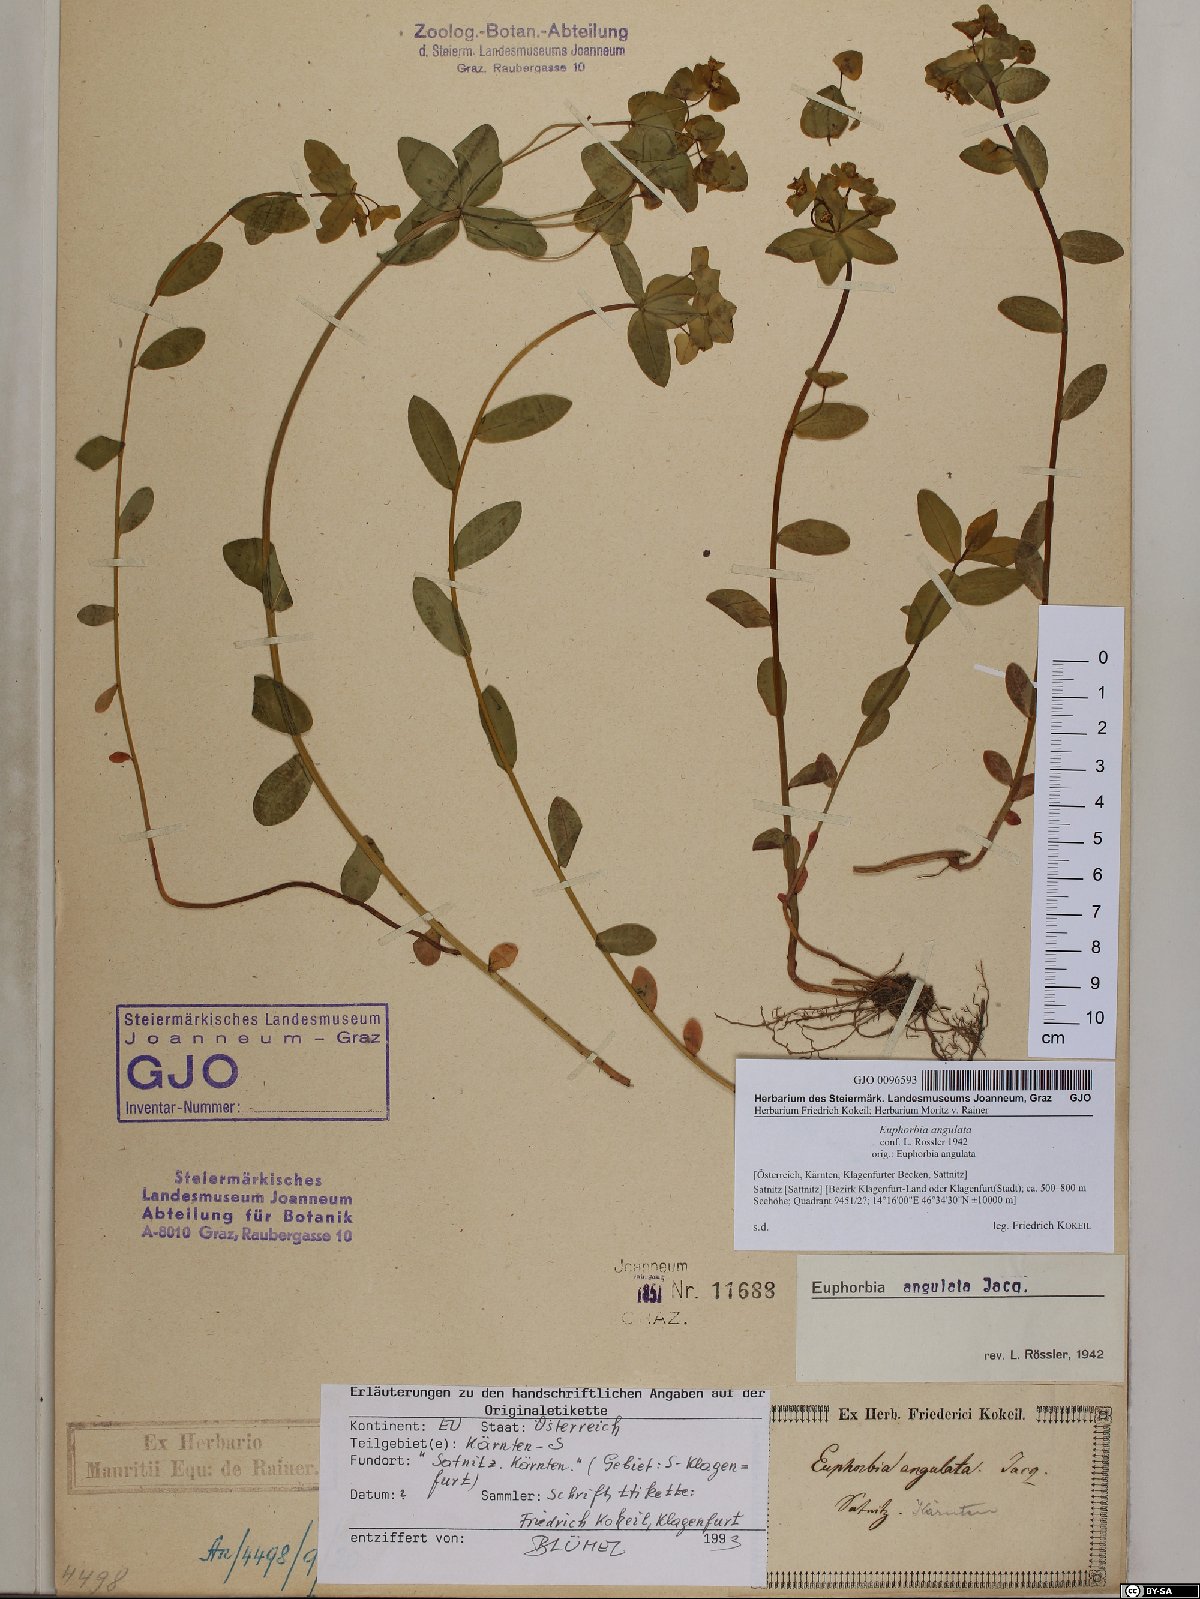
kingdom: Plantae
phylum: Tracheophyta
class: Magnoliopsida
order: Malpighiales
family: Euphorbiaceae
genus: Euphorbia
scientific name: Euphorbia angulata
